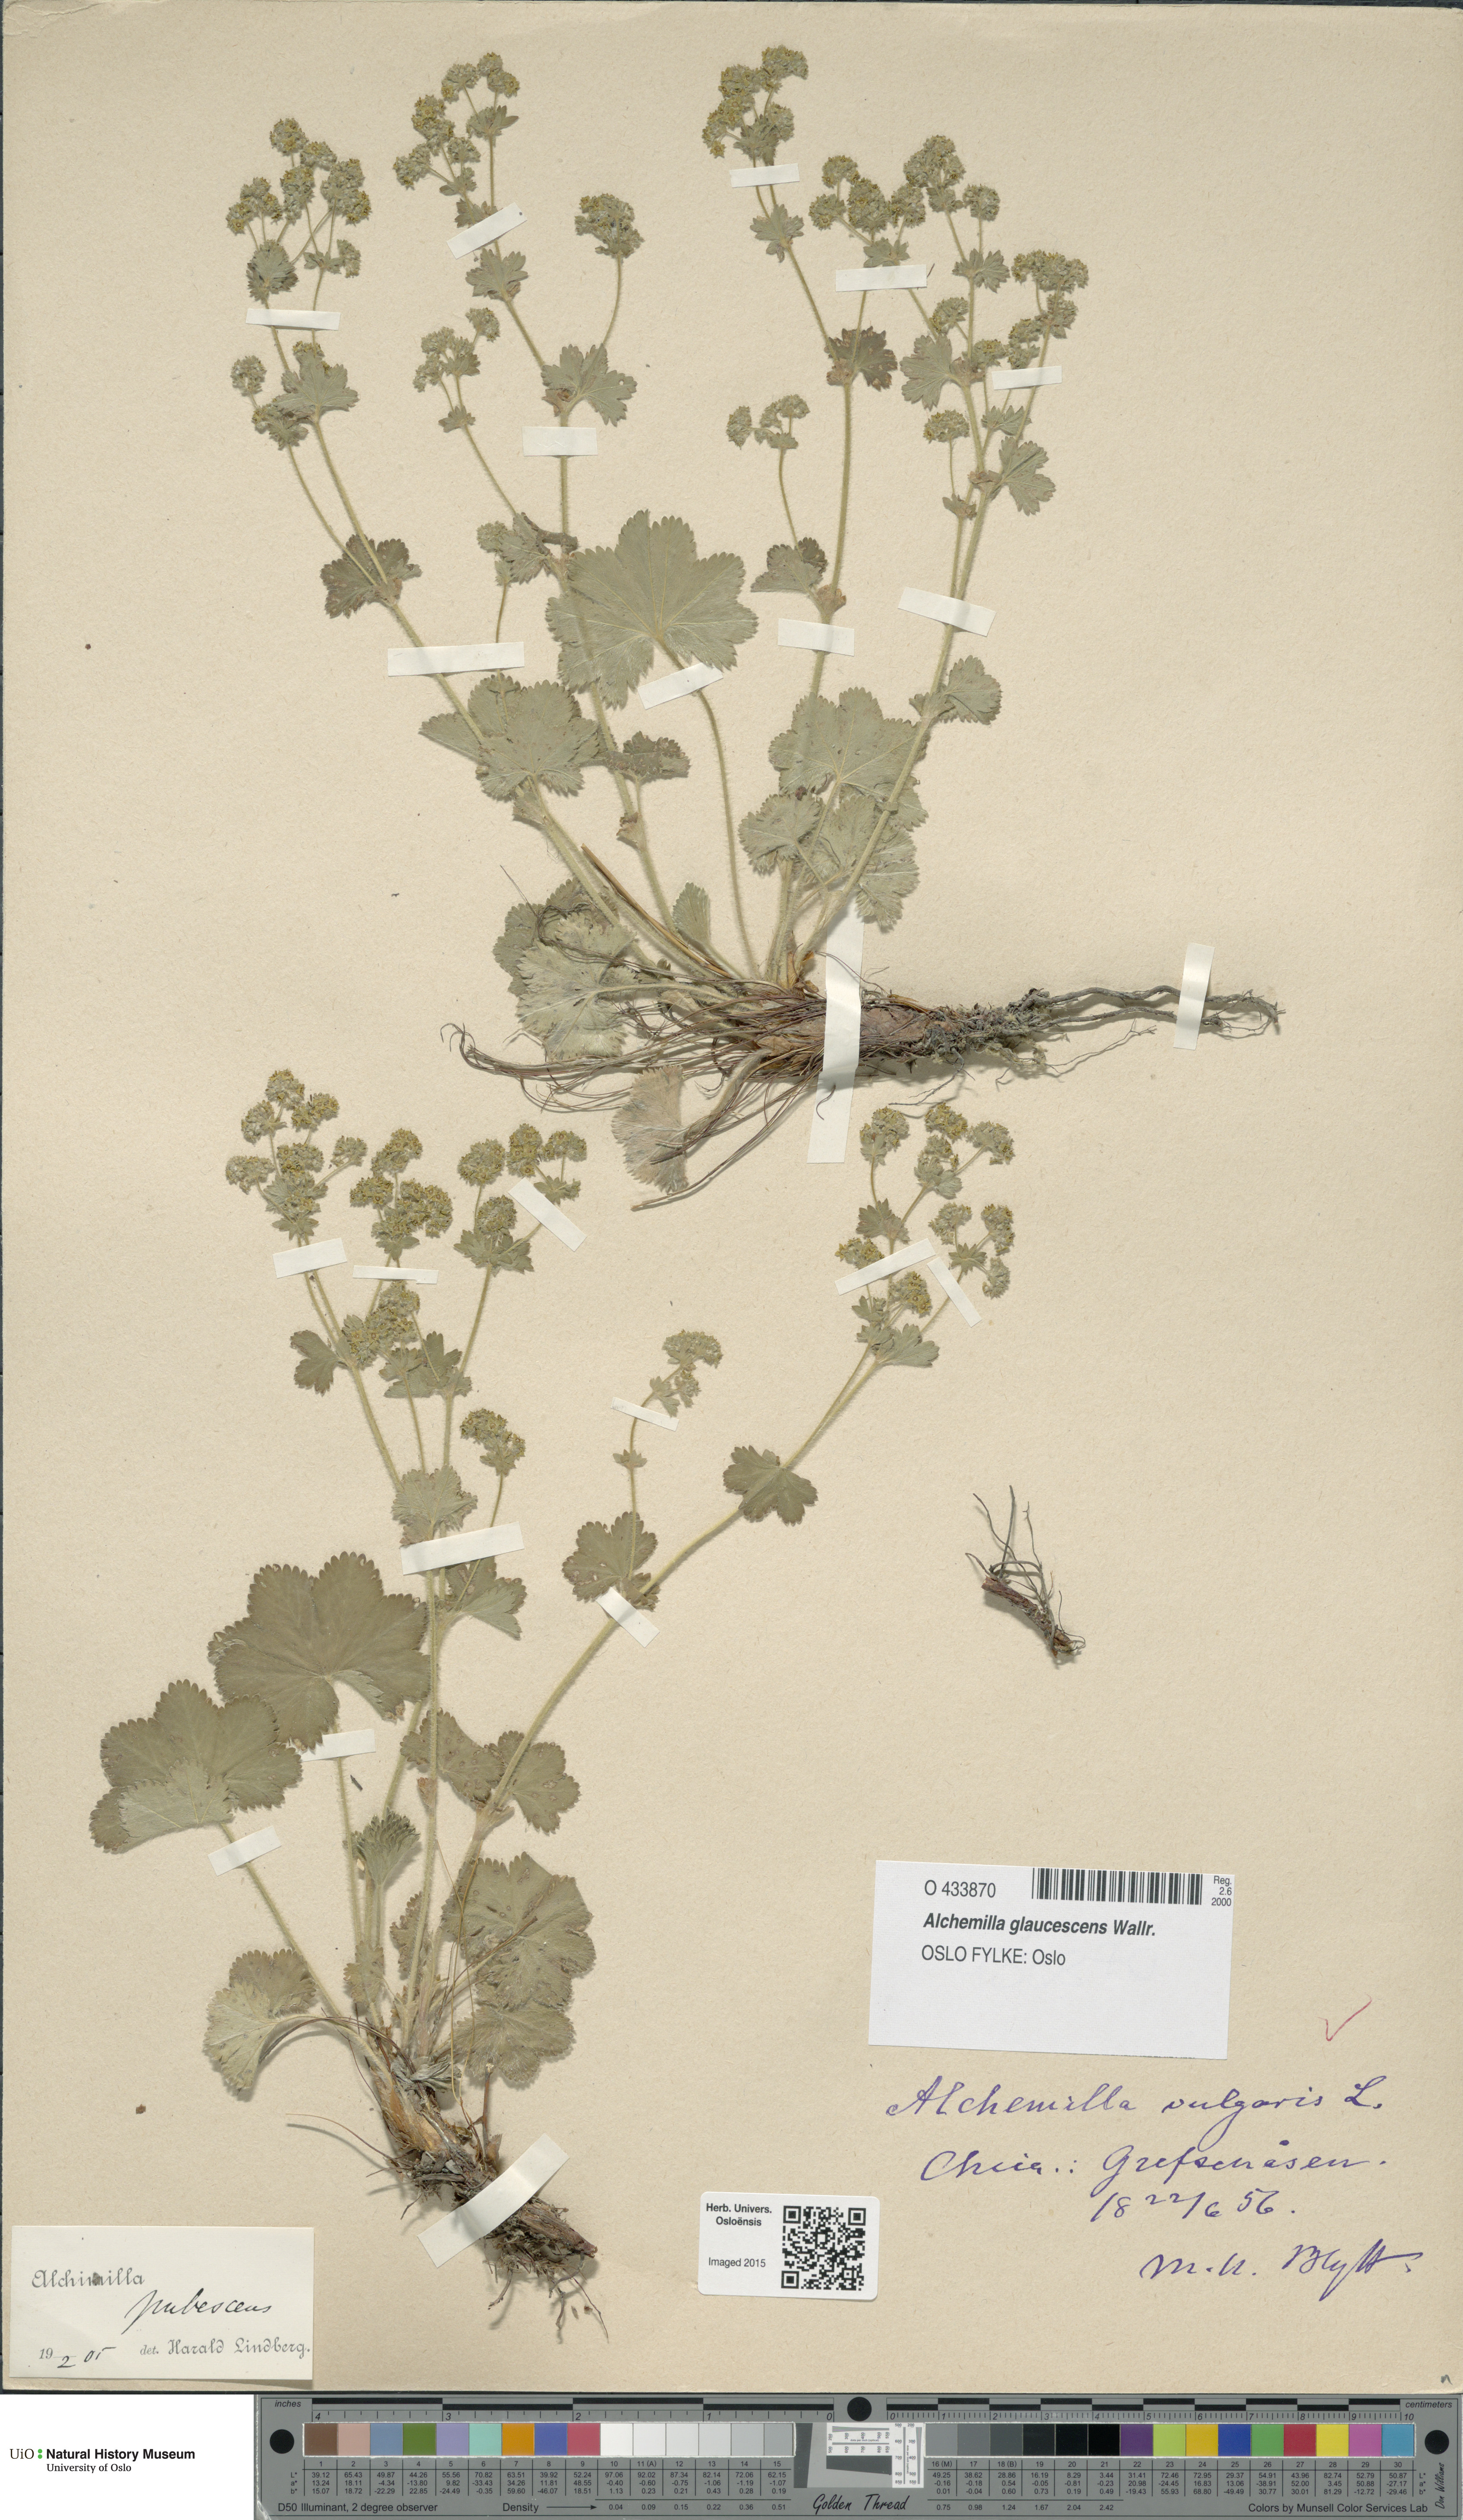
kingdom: Plantae
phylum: Tracheophyta
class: Magnoliopsida
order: Rosales
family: Rosaceae
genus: Alchemilla
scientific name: Alchemilla glaucescens
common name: Silky lady's mantle
